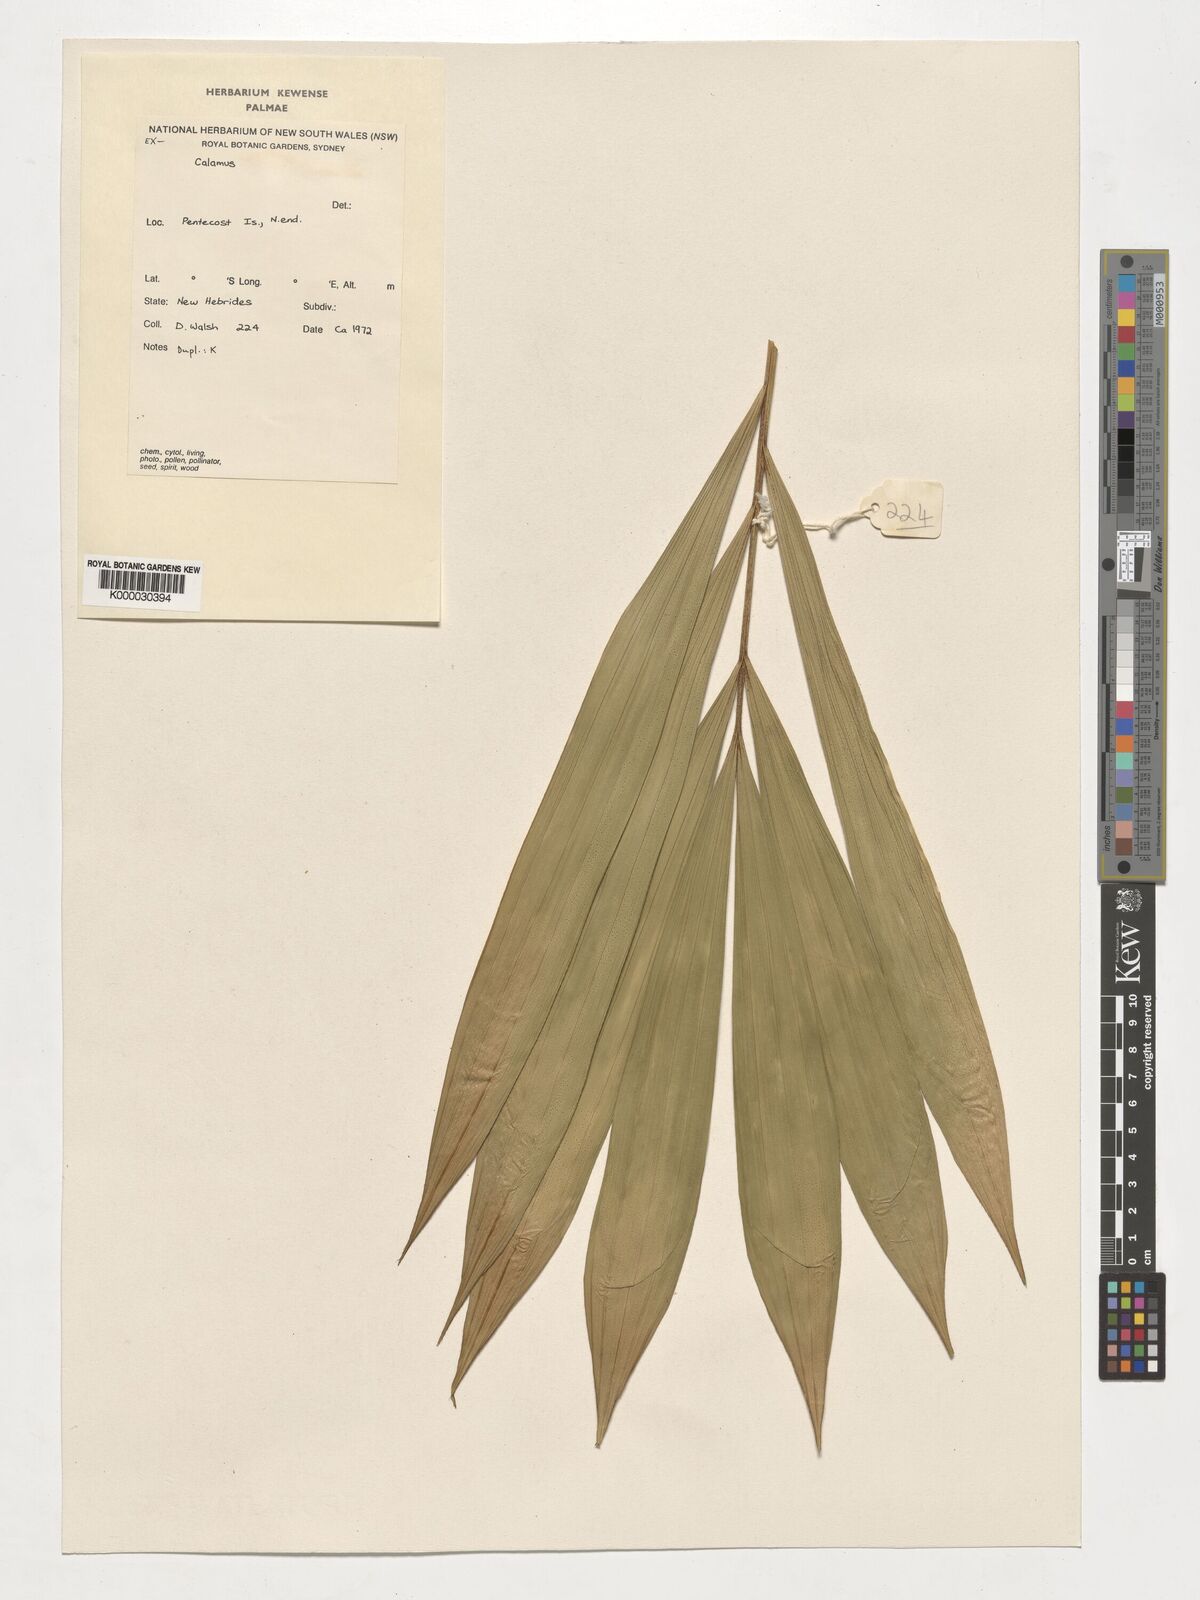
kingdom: Plantae
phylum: Tracheophyta
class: Liliopsida
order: Arecales
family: Arecaceae
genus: Calamus
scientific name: Calamus
